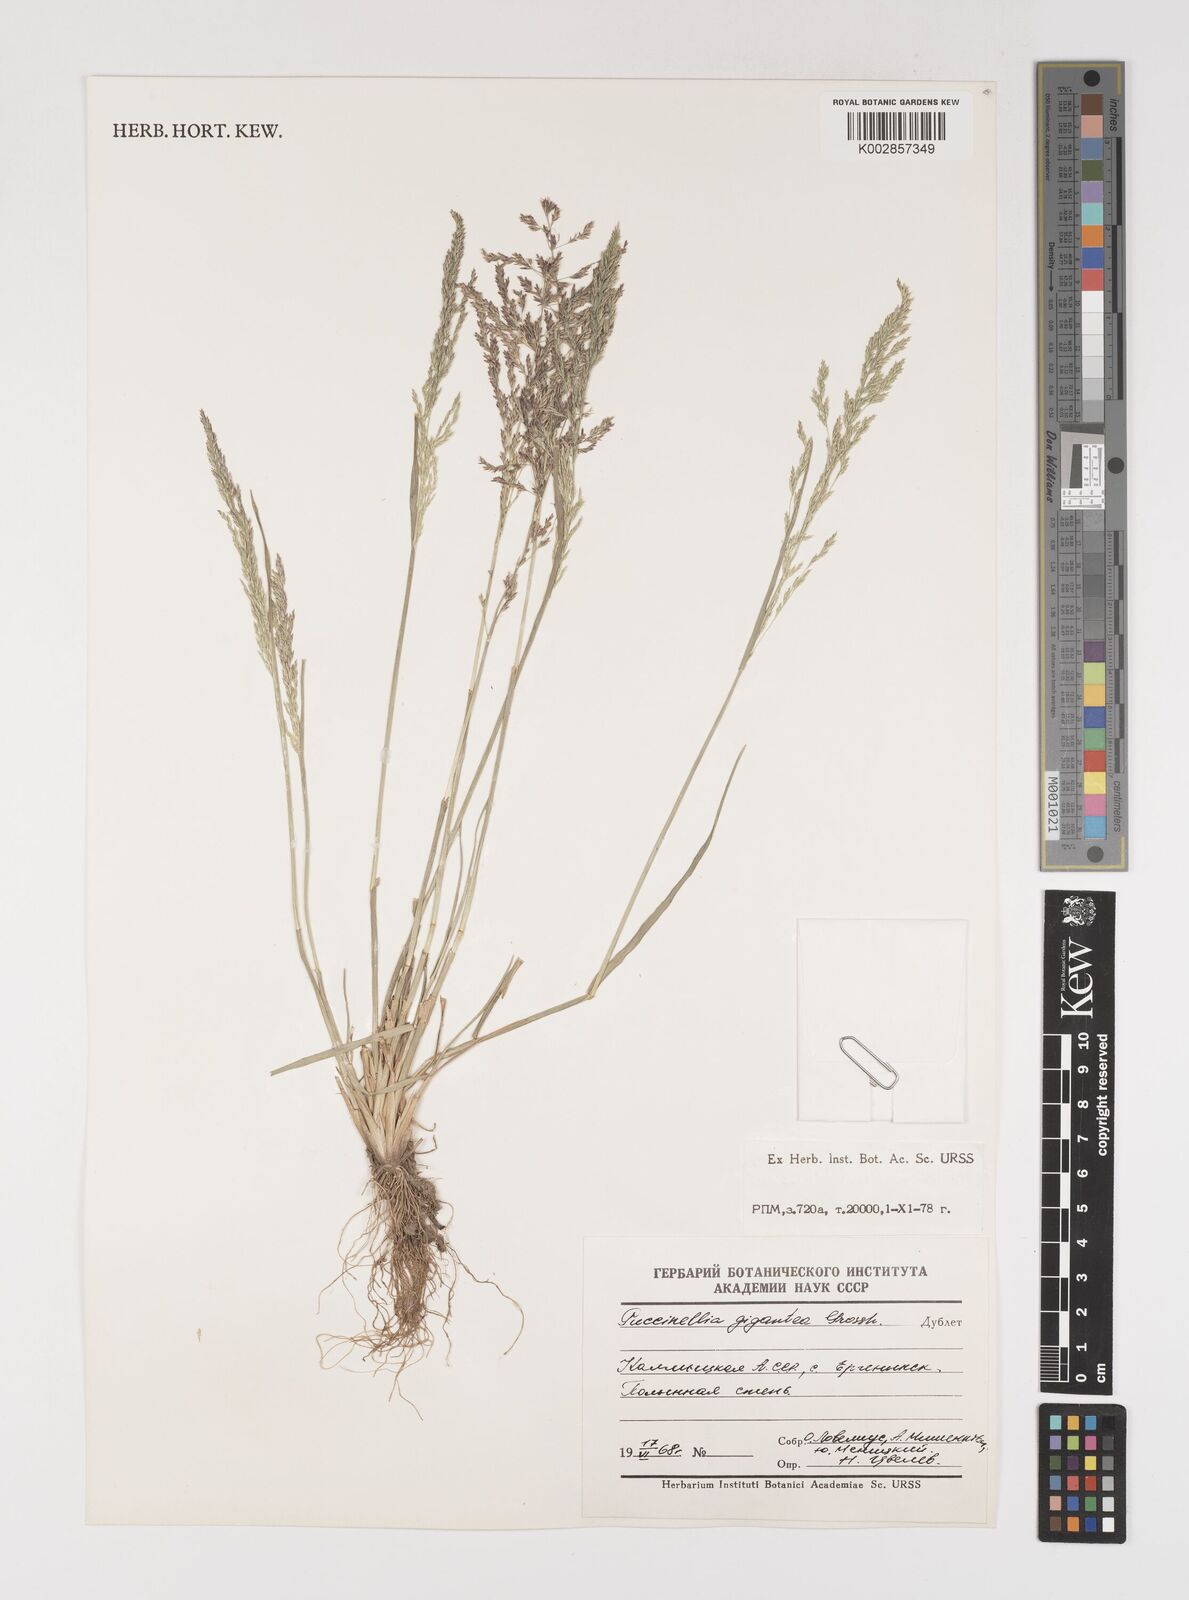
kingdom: Plantae
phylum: Tracheophyta
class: Liliopsida
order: Poales
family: Poaceae
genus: Puccinellia
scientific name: Puccinellia gigantea
